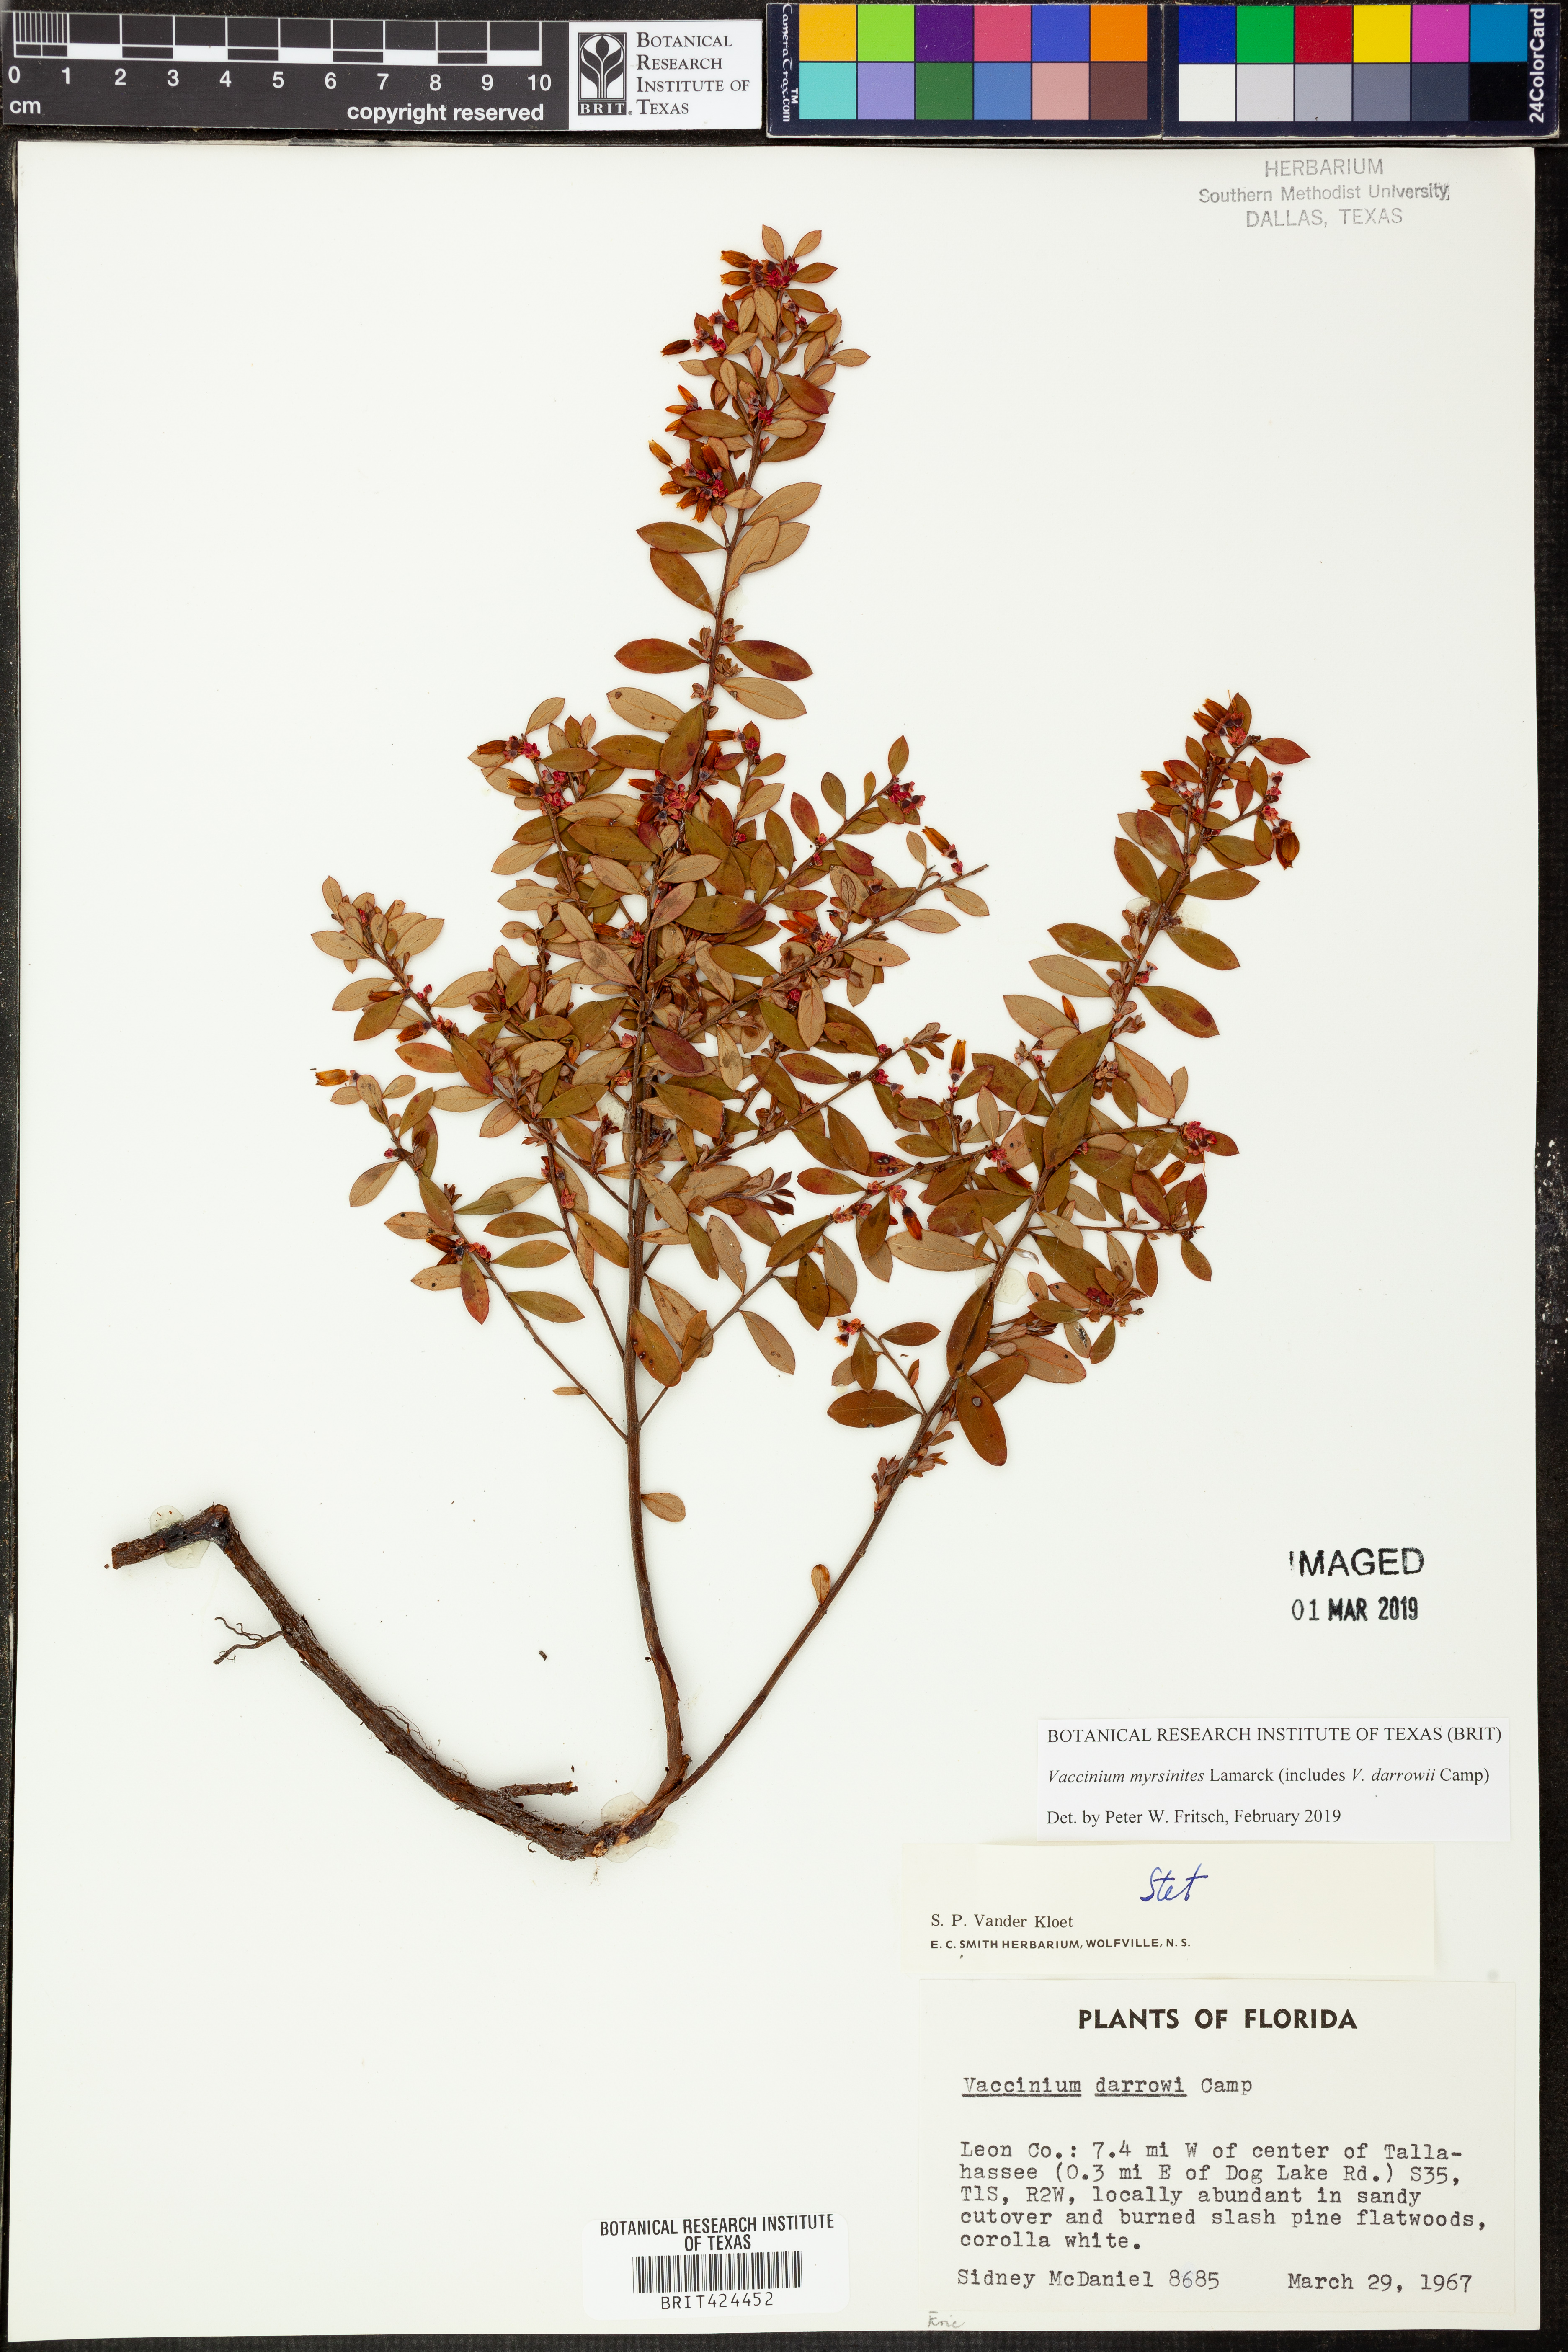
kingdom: Plantae
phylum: Tracheophyta
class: Magnoliopsida
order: Ericales
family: Ericaceae
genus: Vaccinium
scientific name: Vaccinium myrsinites
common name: Evergreen blueberry
